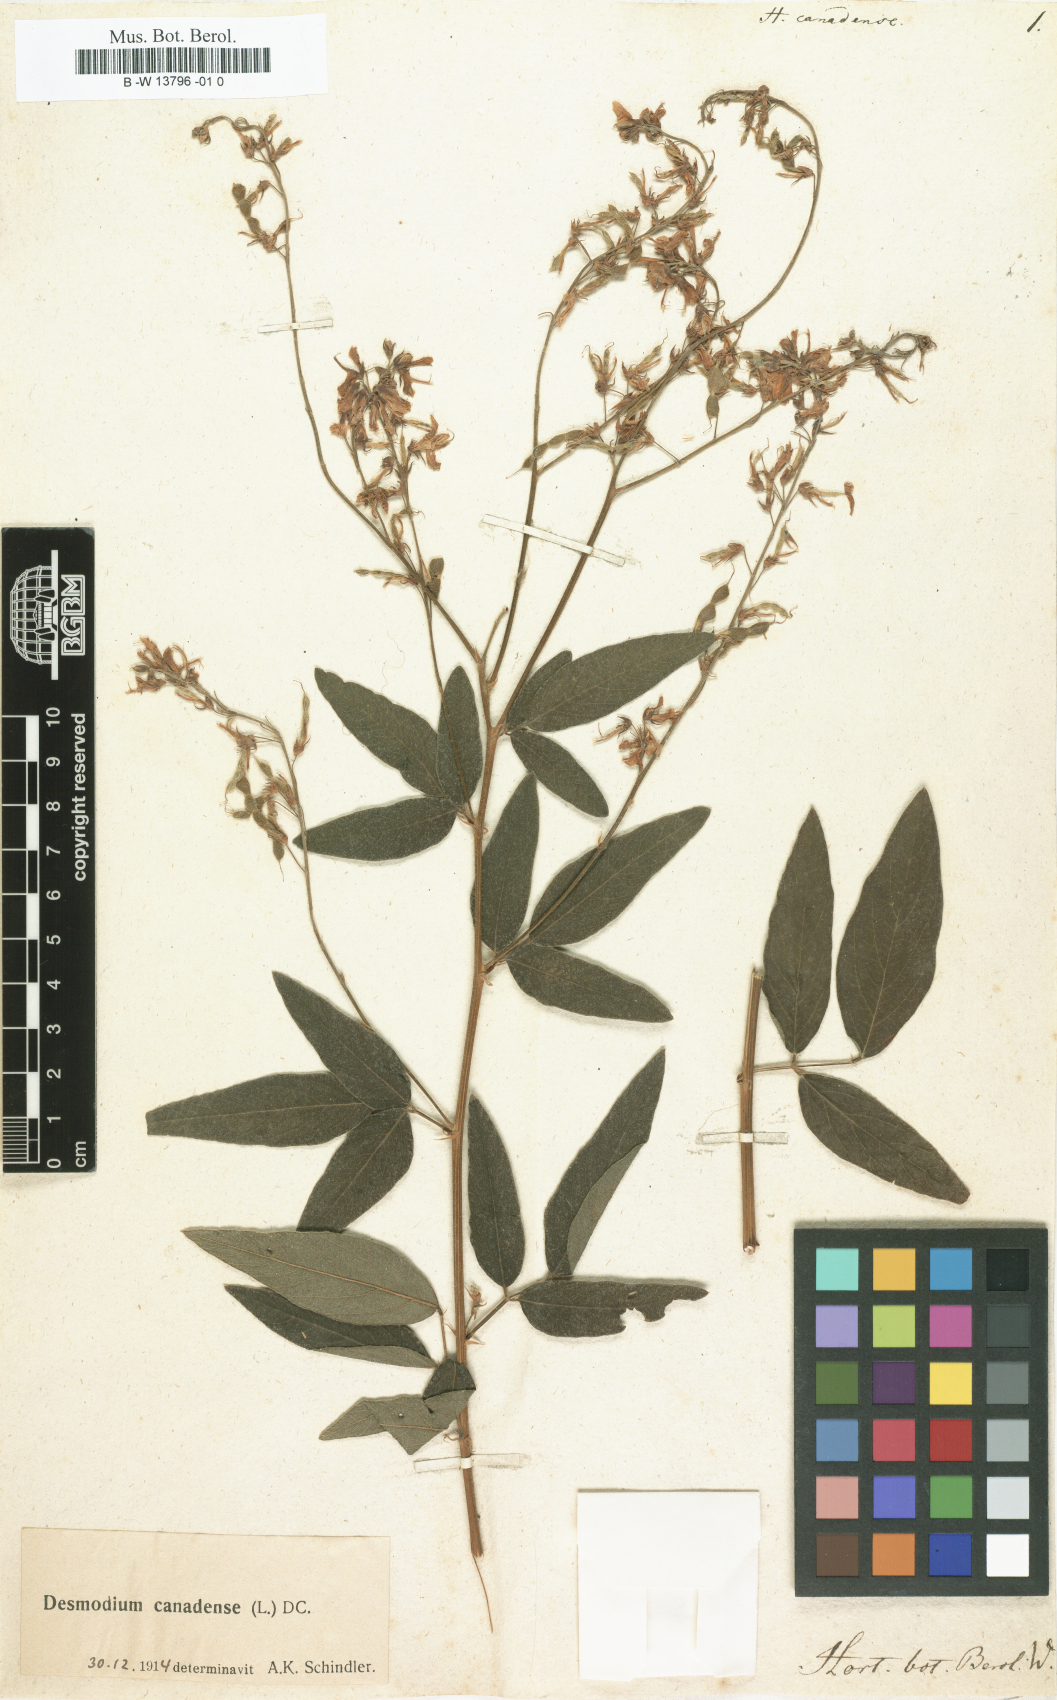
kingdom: Plantae
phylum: Tracheophyta
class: Magnoliopsida
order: Fabales
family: Fabaceae
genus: Desmodium
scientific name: Desmodium canadense
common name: Canada tick-trefoil
